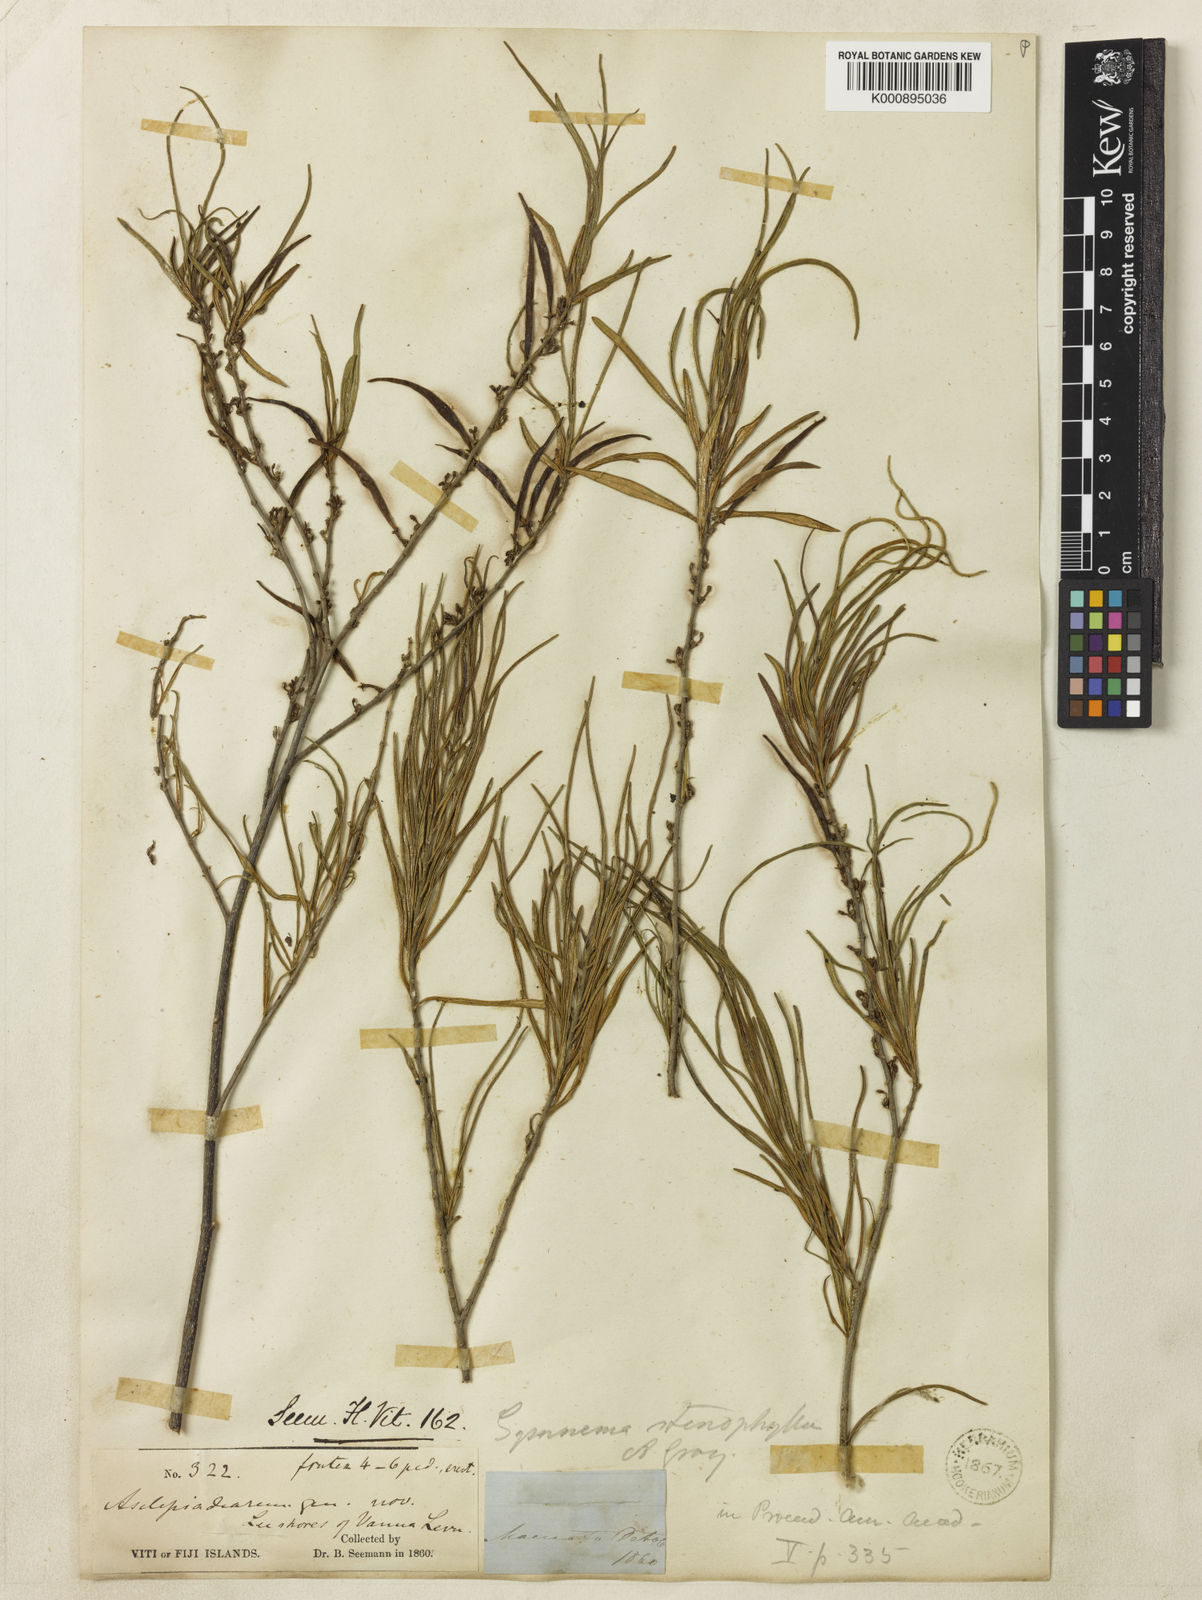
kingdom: Plantae
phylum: Tracheophyta
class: Magnoliopsida
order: Gentianales
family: Apocynaceae
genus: Ruehssia
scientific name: Ruehssia linearis
